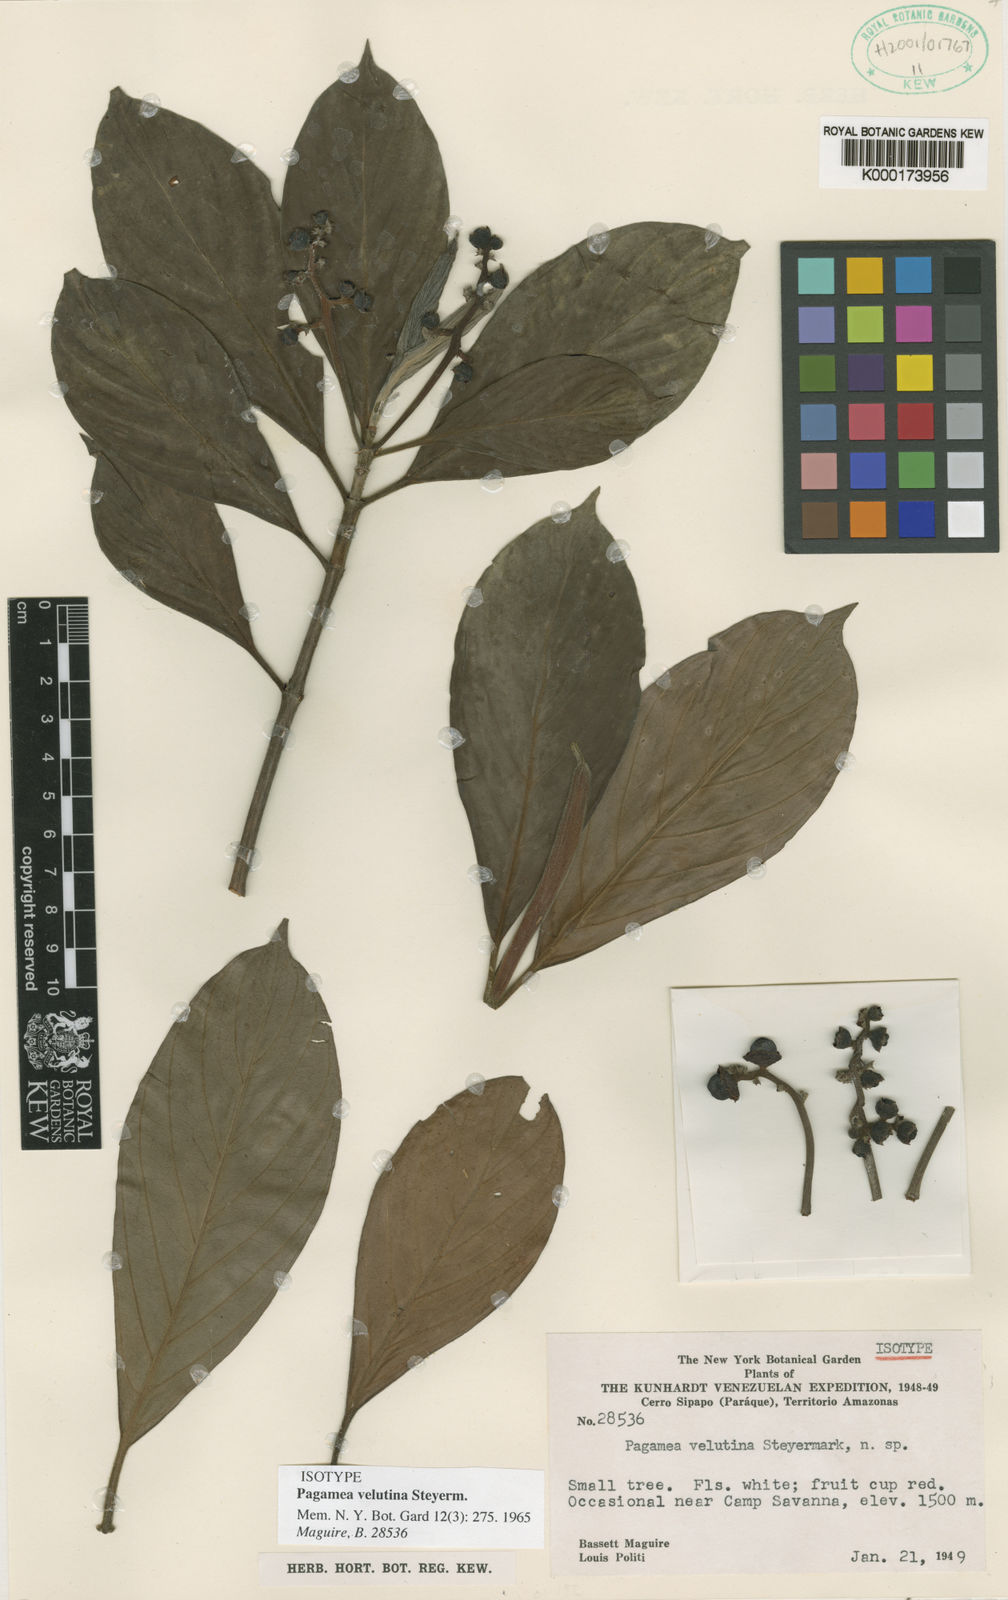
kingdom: Plantae
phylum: Tracheophyta
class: Magnoliopsida
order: Gentianales
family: Rubiaceae
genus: Pagamea
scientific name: Pagamea velutina
